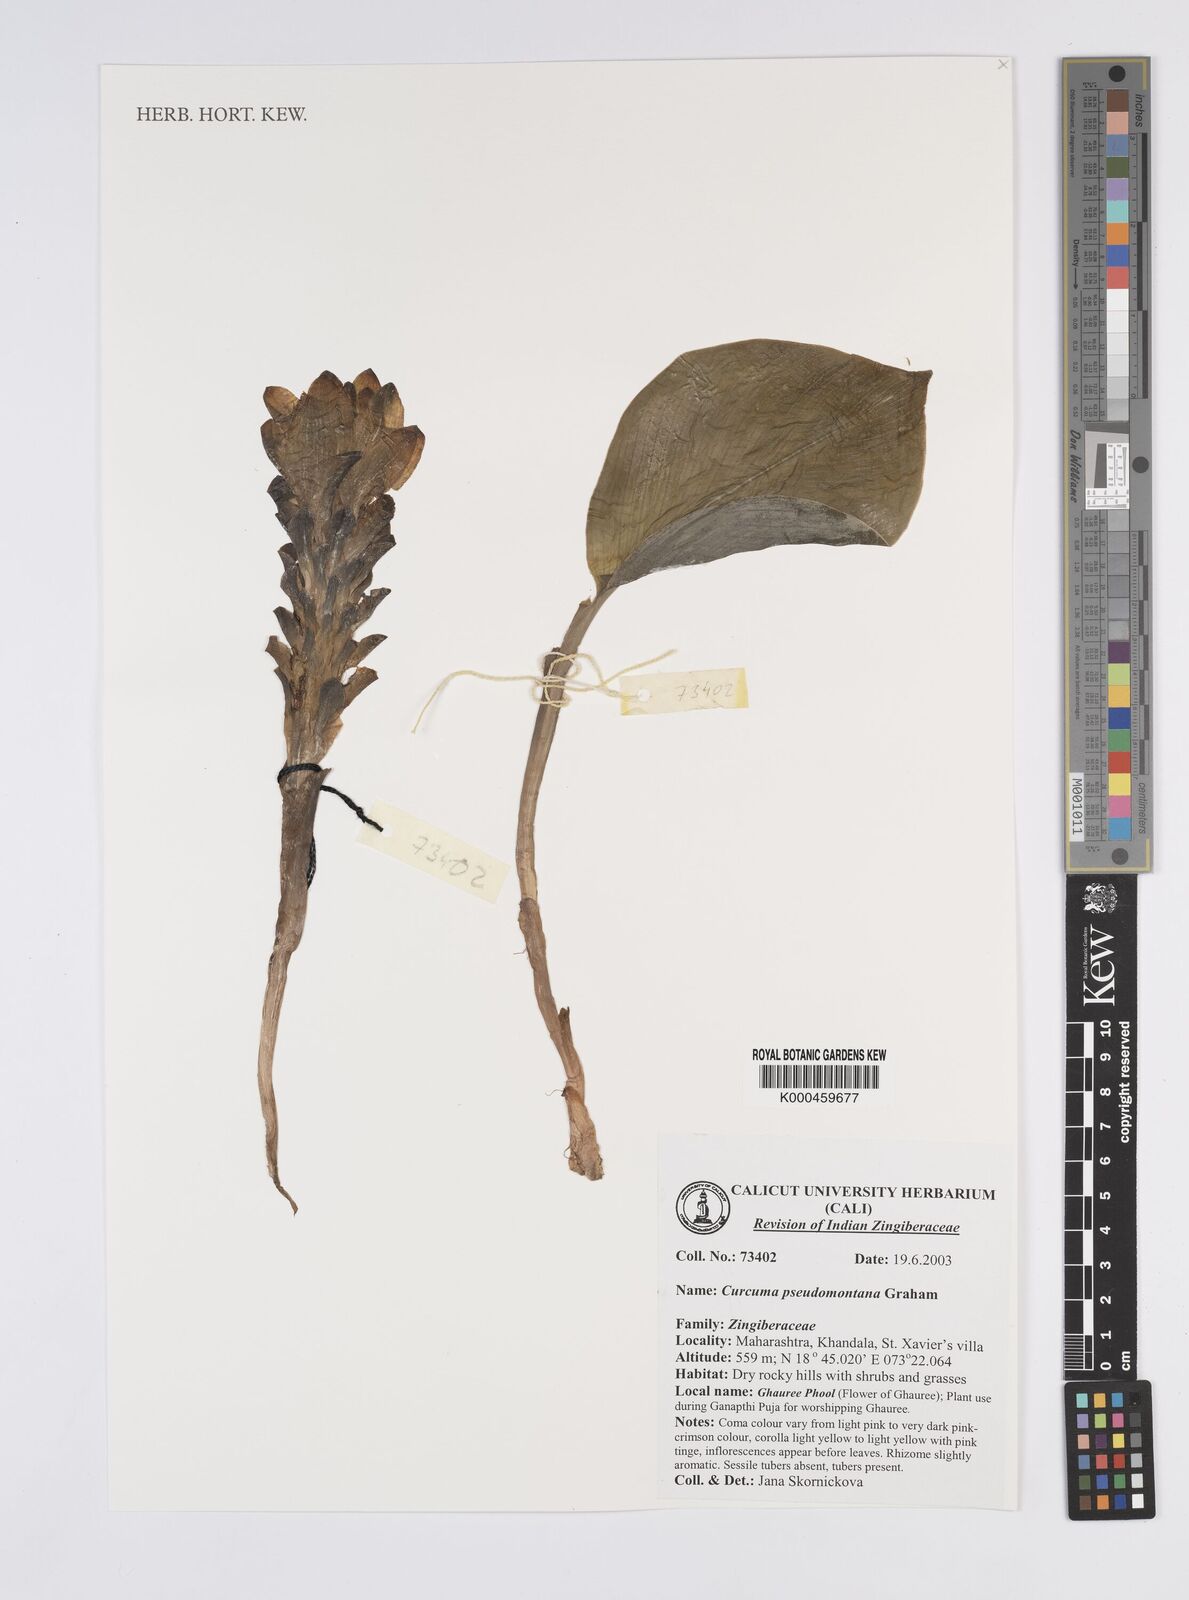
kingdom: Plantae
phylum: Tracheophyta
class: Liliopsida
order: Zingiberales
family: Zingiberaceae
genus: Curcuma
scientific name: Curcuma pseudomontana
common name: Hill turmeric
